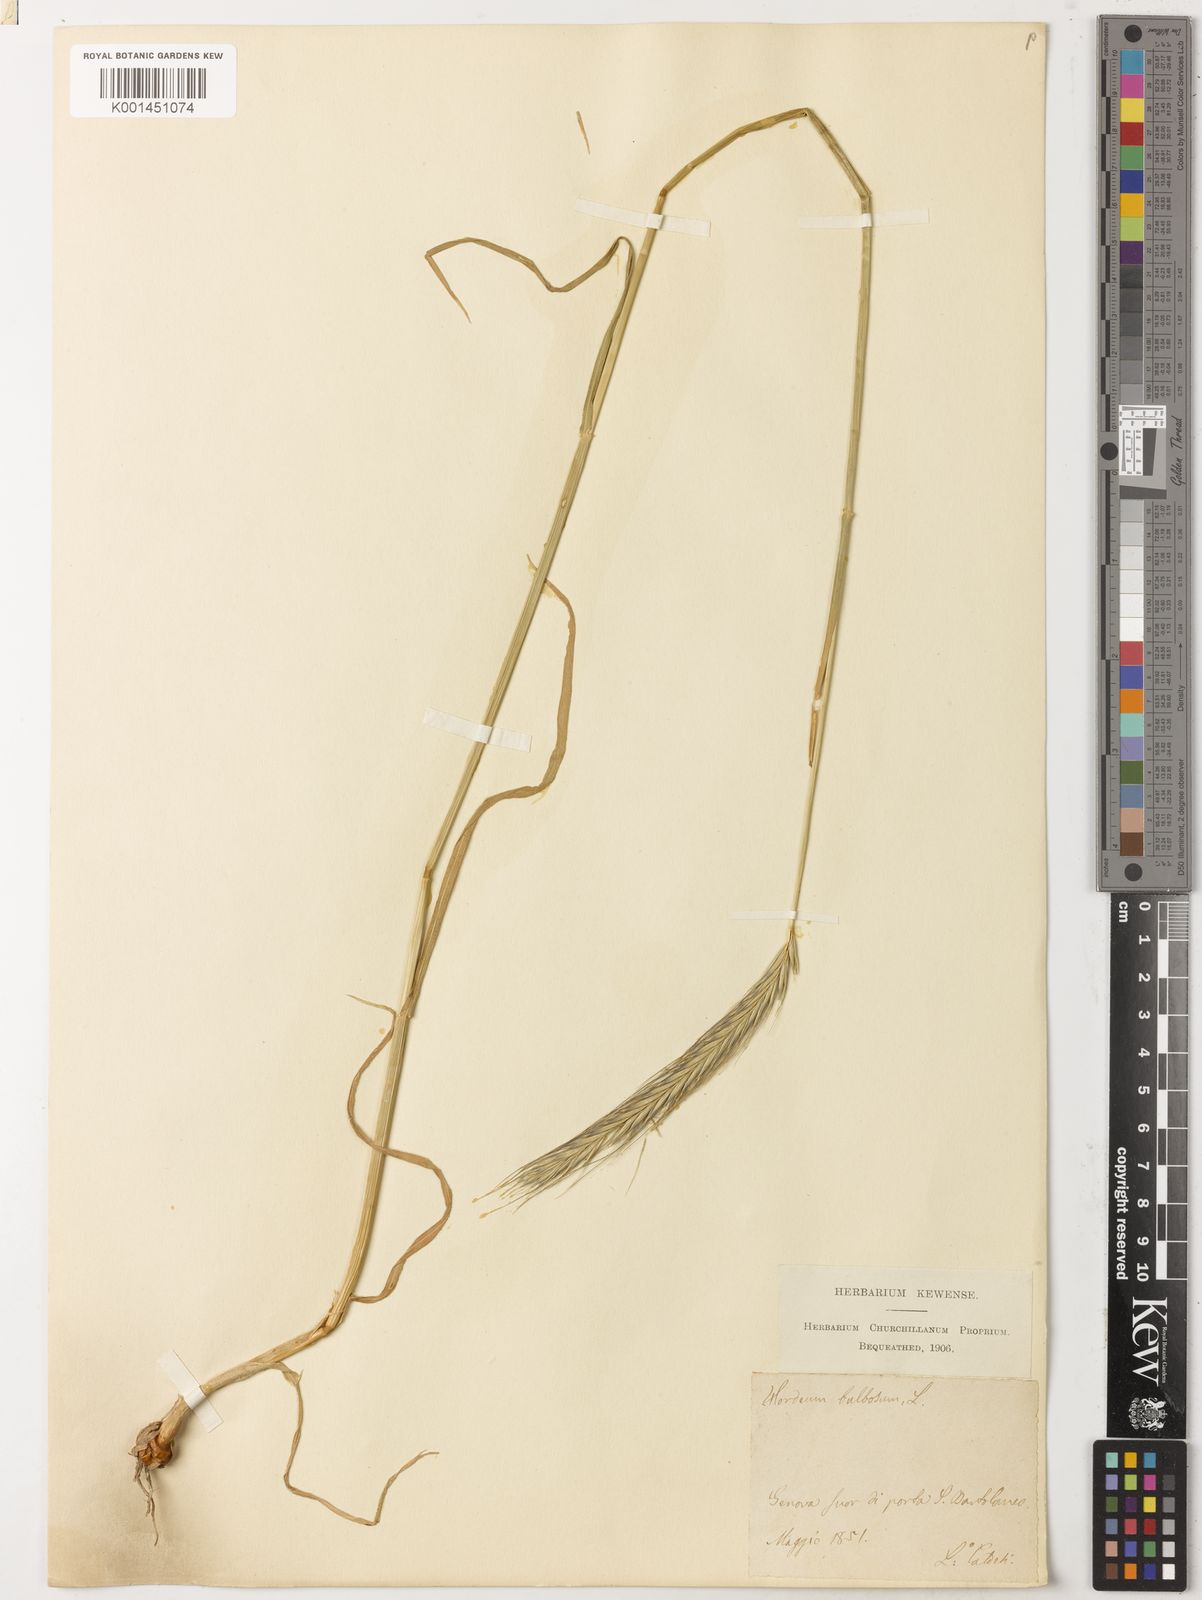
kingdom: Plantae
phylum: Tracheophyta
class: Liliopsida
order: Poales
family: Poaceae
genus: Hordeum
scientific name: Hordeum bulbosum
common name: Bulbous barley
